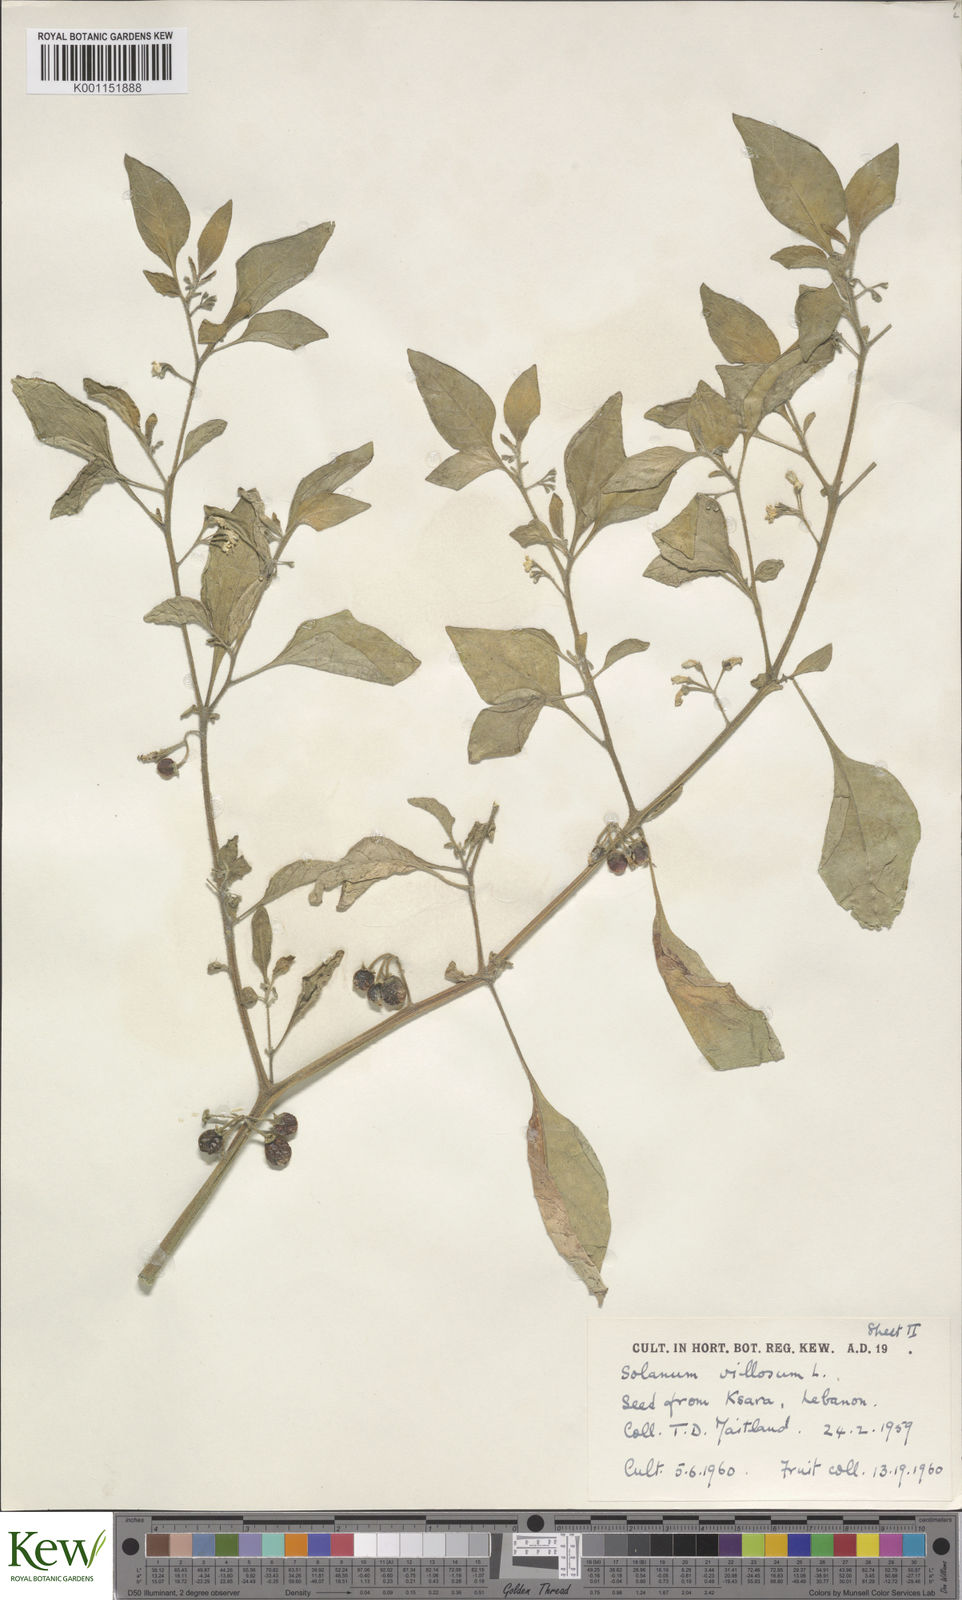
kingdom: Plantae
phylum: Tracheophyta
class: Magnoliopsida
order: Solanales
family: Solanaceae
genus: Solanum
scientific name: Solanum villosum
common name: Red nightshade
